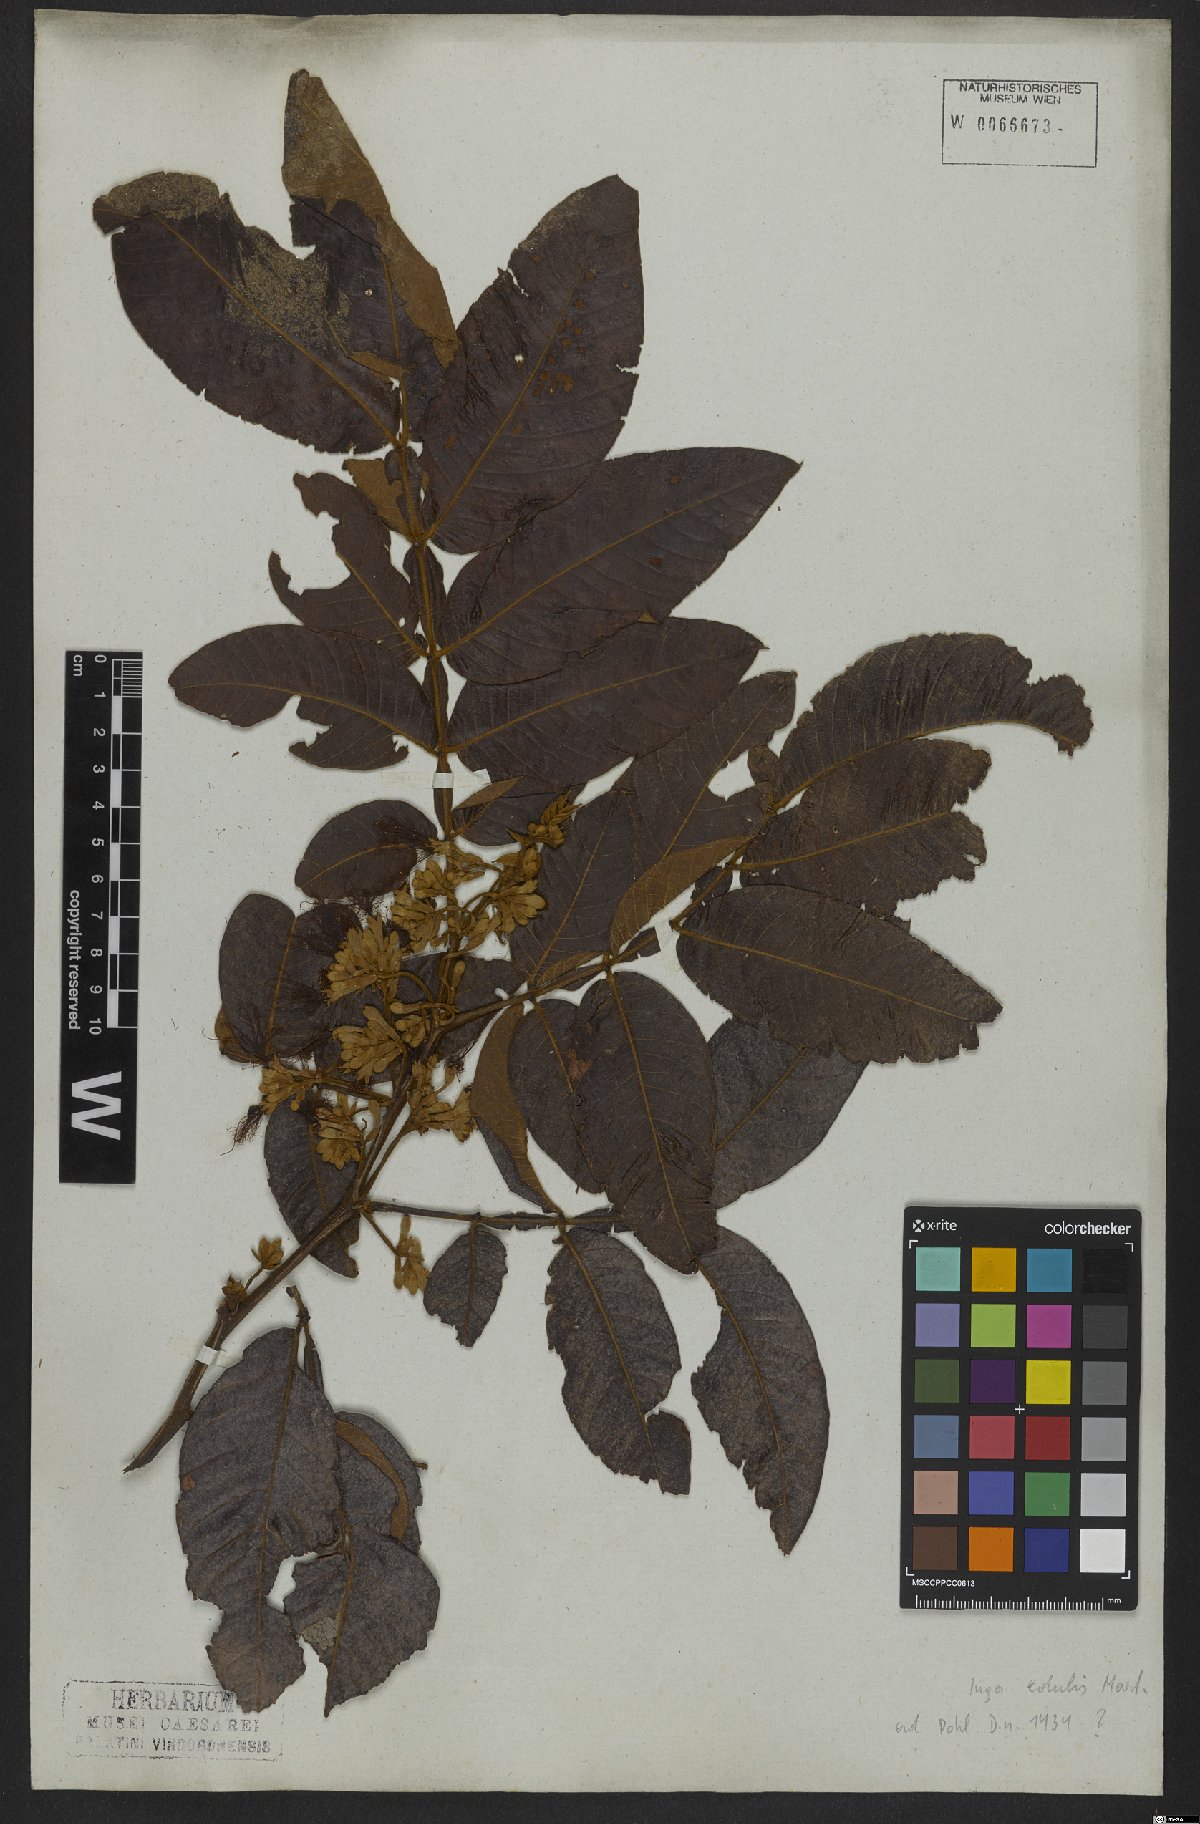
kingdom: Plantae
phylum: Tracheophyta
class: Magnoliopsida
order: Fabales
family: Fabaceae
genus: Inga
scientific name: Inga edulis
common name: Ice cream bean
